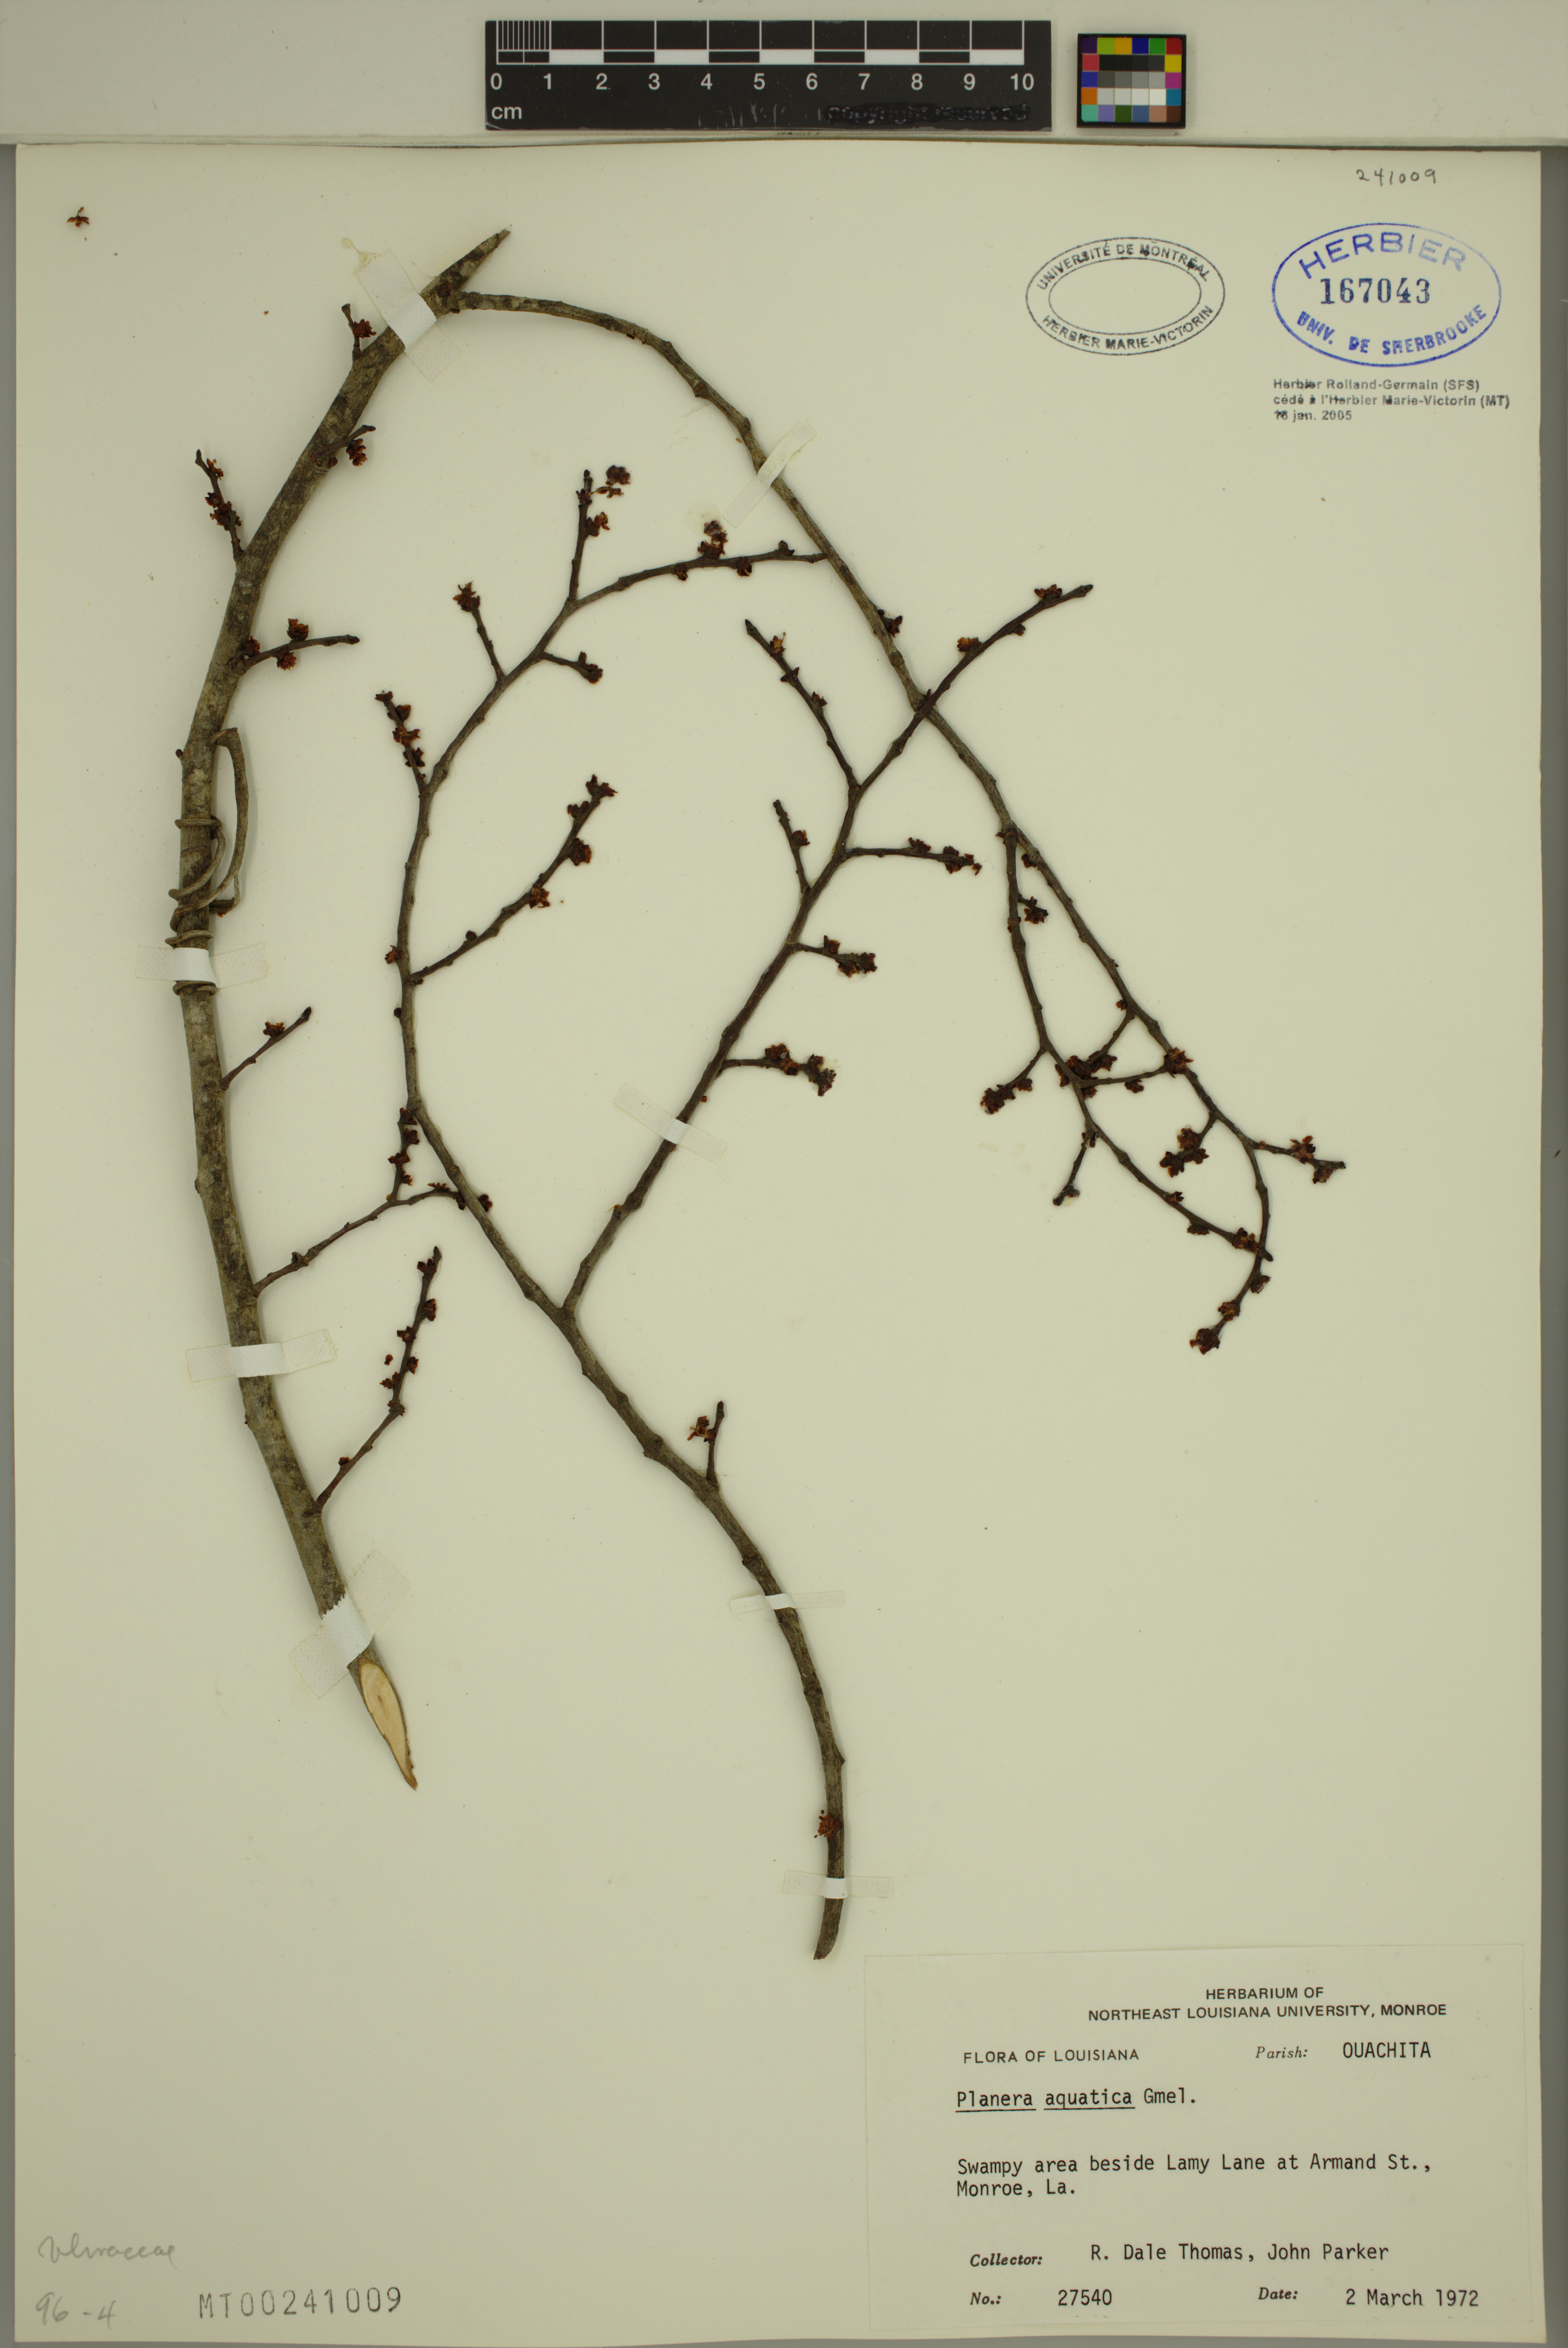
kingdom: Plantae
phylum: Tracheophyta
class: Magnoliopsida
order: Rosales
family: Ulmaceae
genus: Planera
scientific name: Planera aquatica
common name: Water-elm
